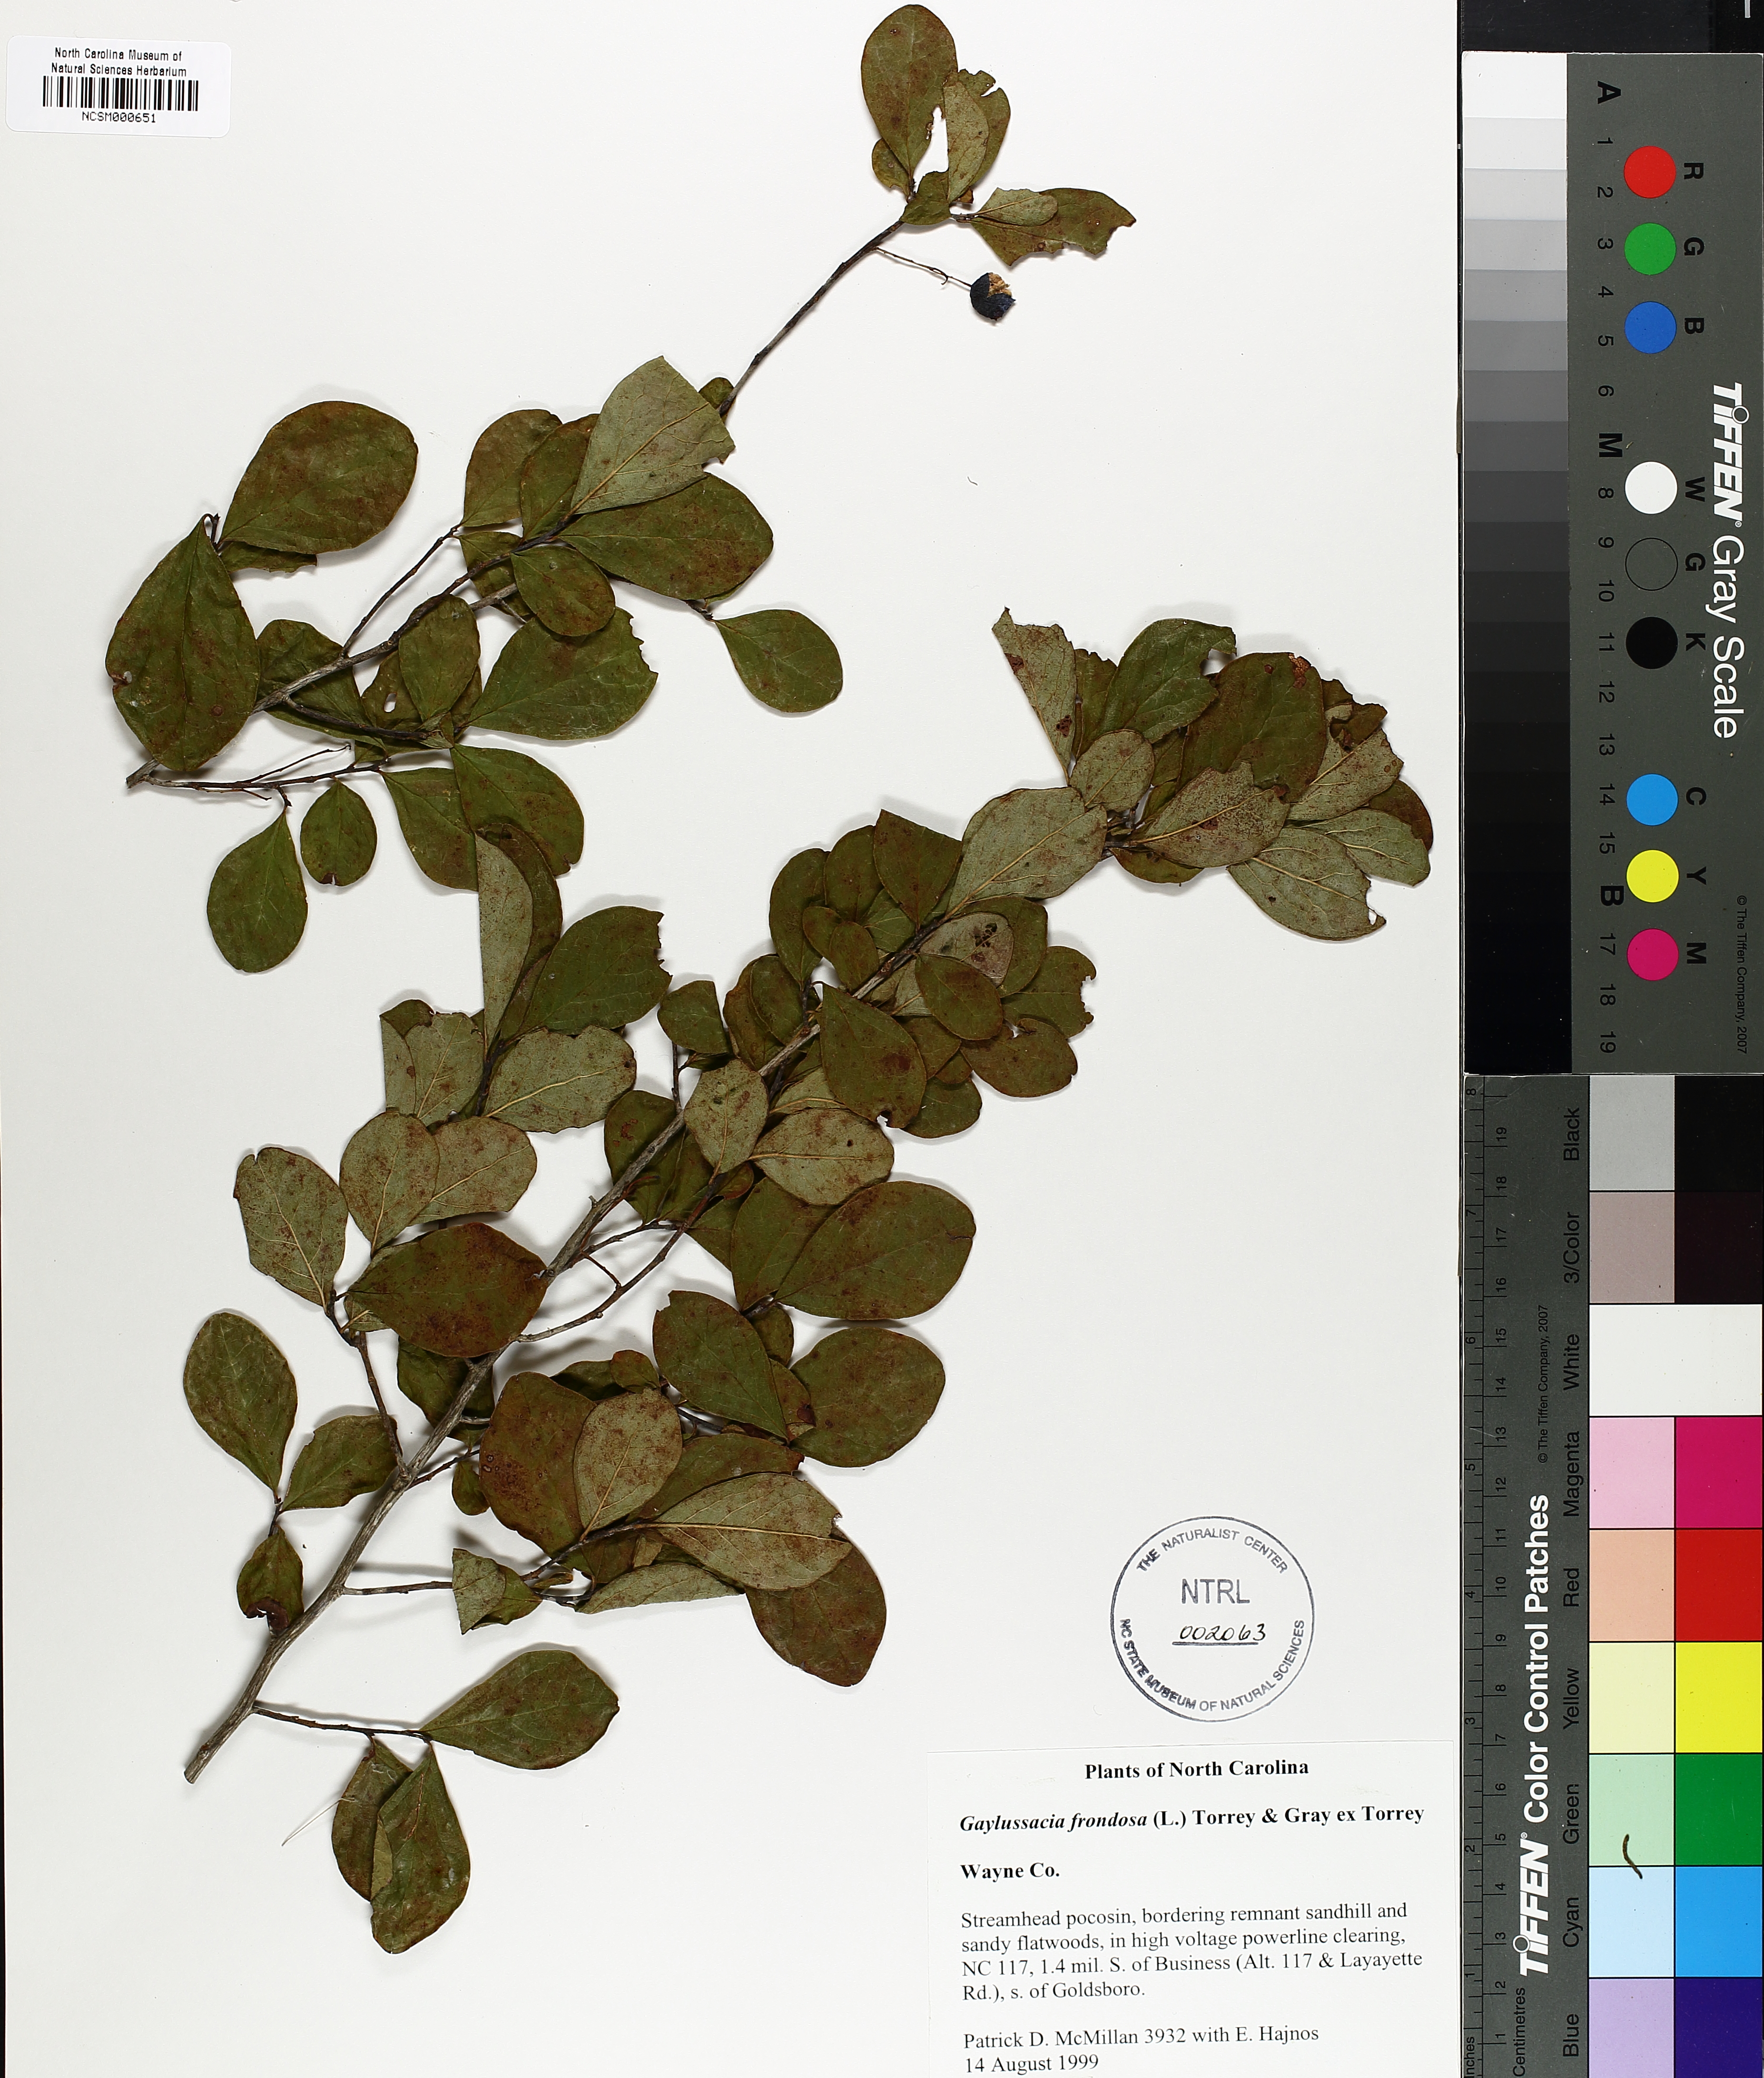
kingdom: Plantae
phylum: Tracheophyta
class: Magnoliopsida
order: Ericales
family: Ericaceae
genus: Gaylussacia
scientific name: Gaylussacia frondosa
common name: Dangleberry
